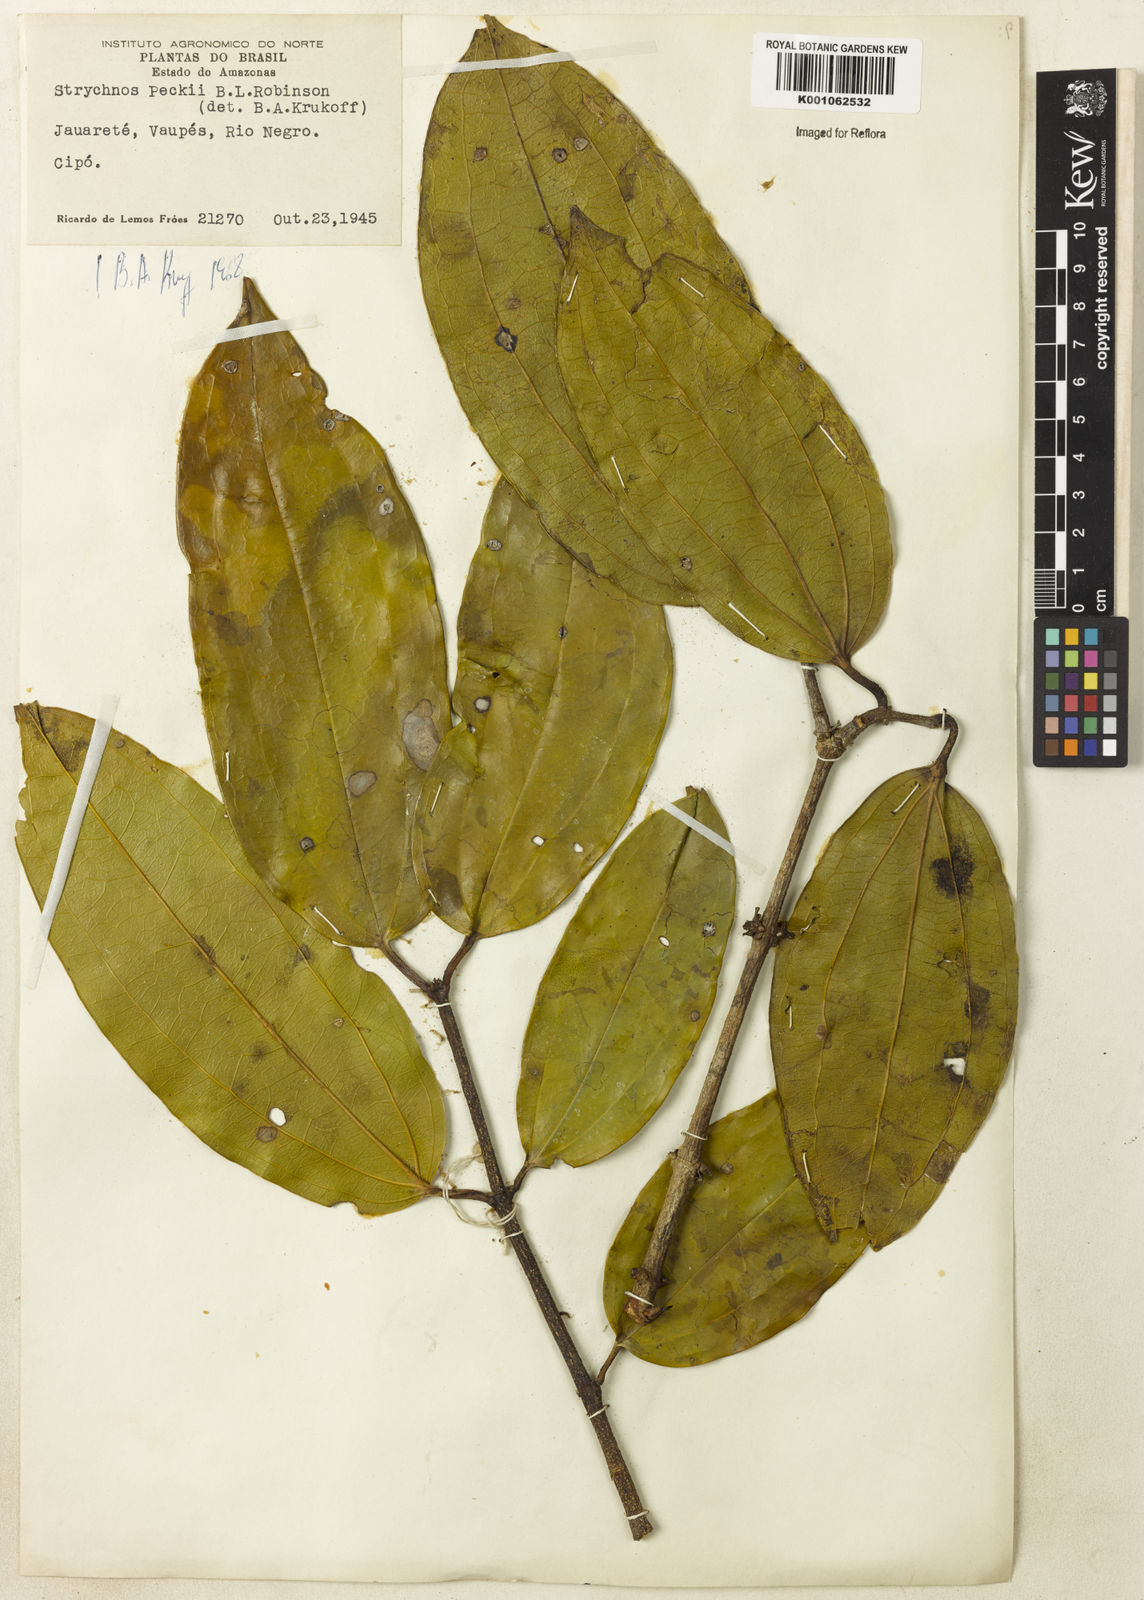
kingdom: Plantae
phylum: Tracheophyta
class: Magnoliopsida
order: Gentianales
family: Loganiaceae
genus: Strychnos
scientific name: Strychnos peckii
